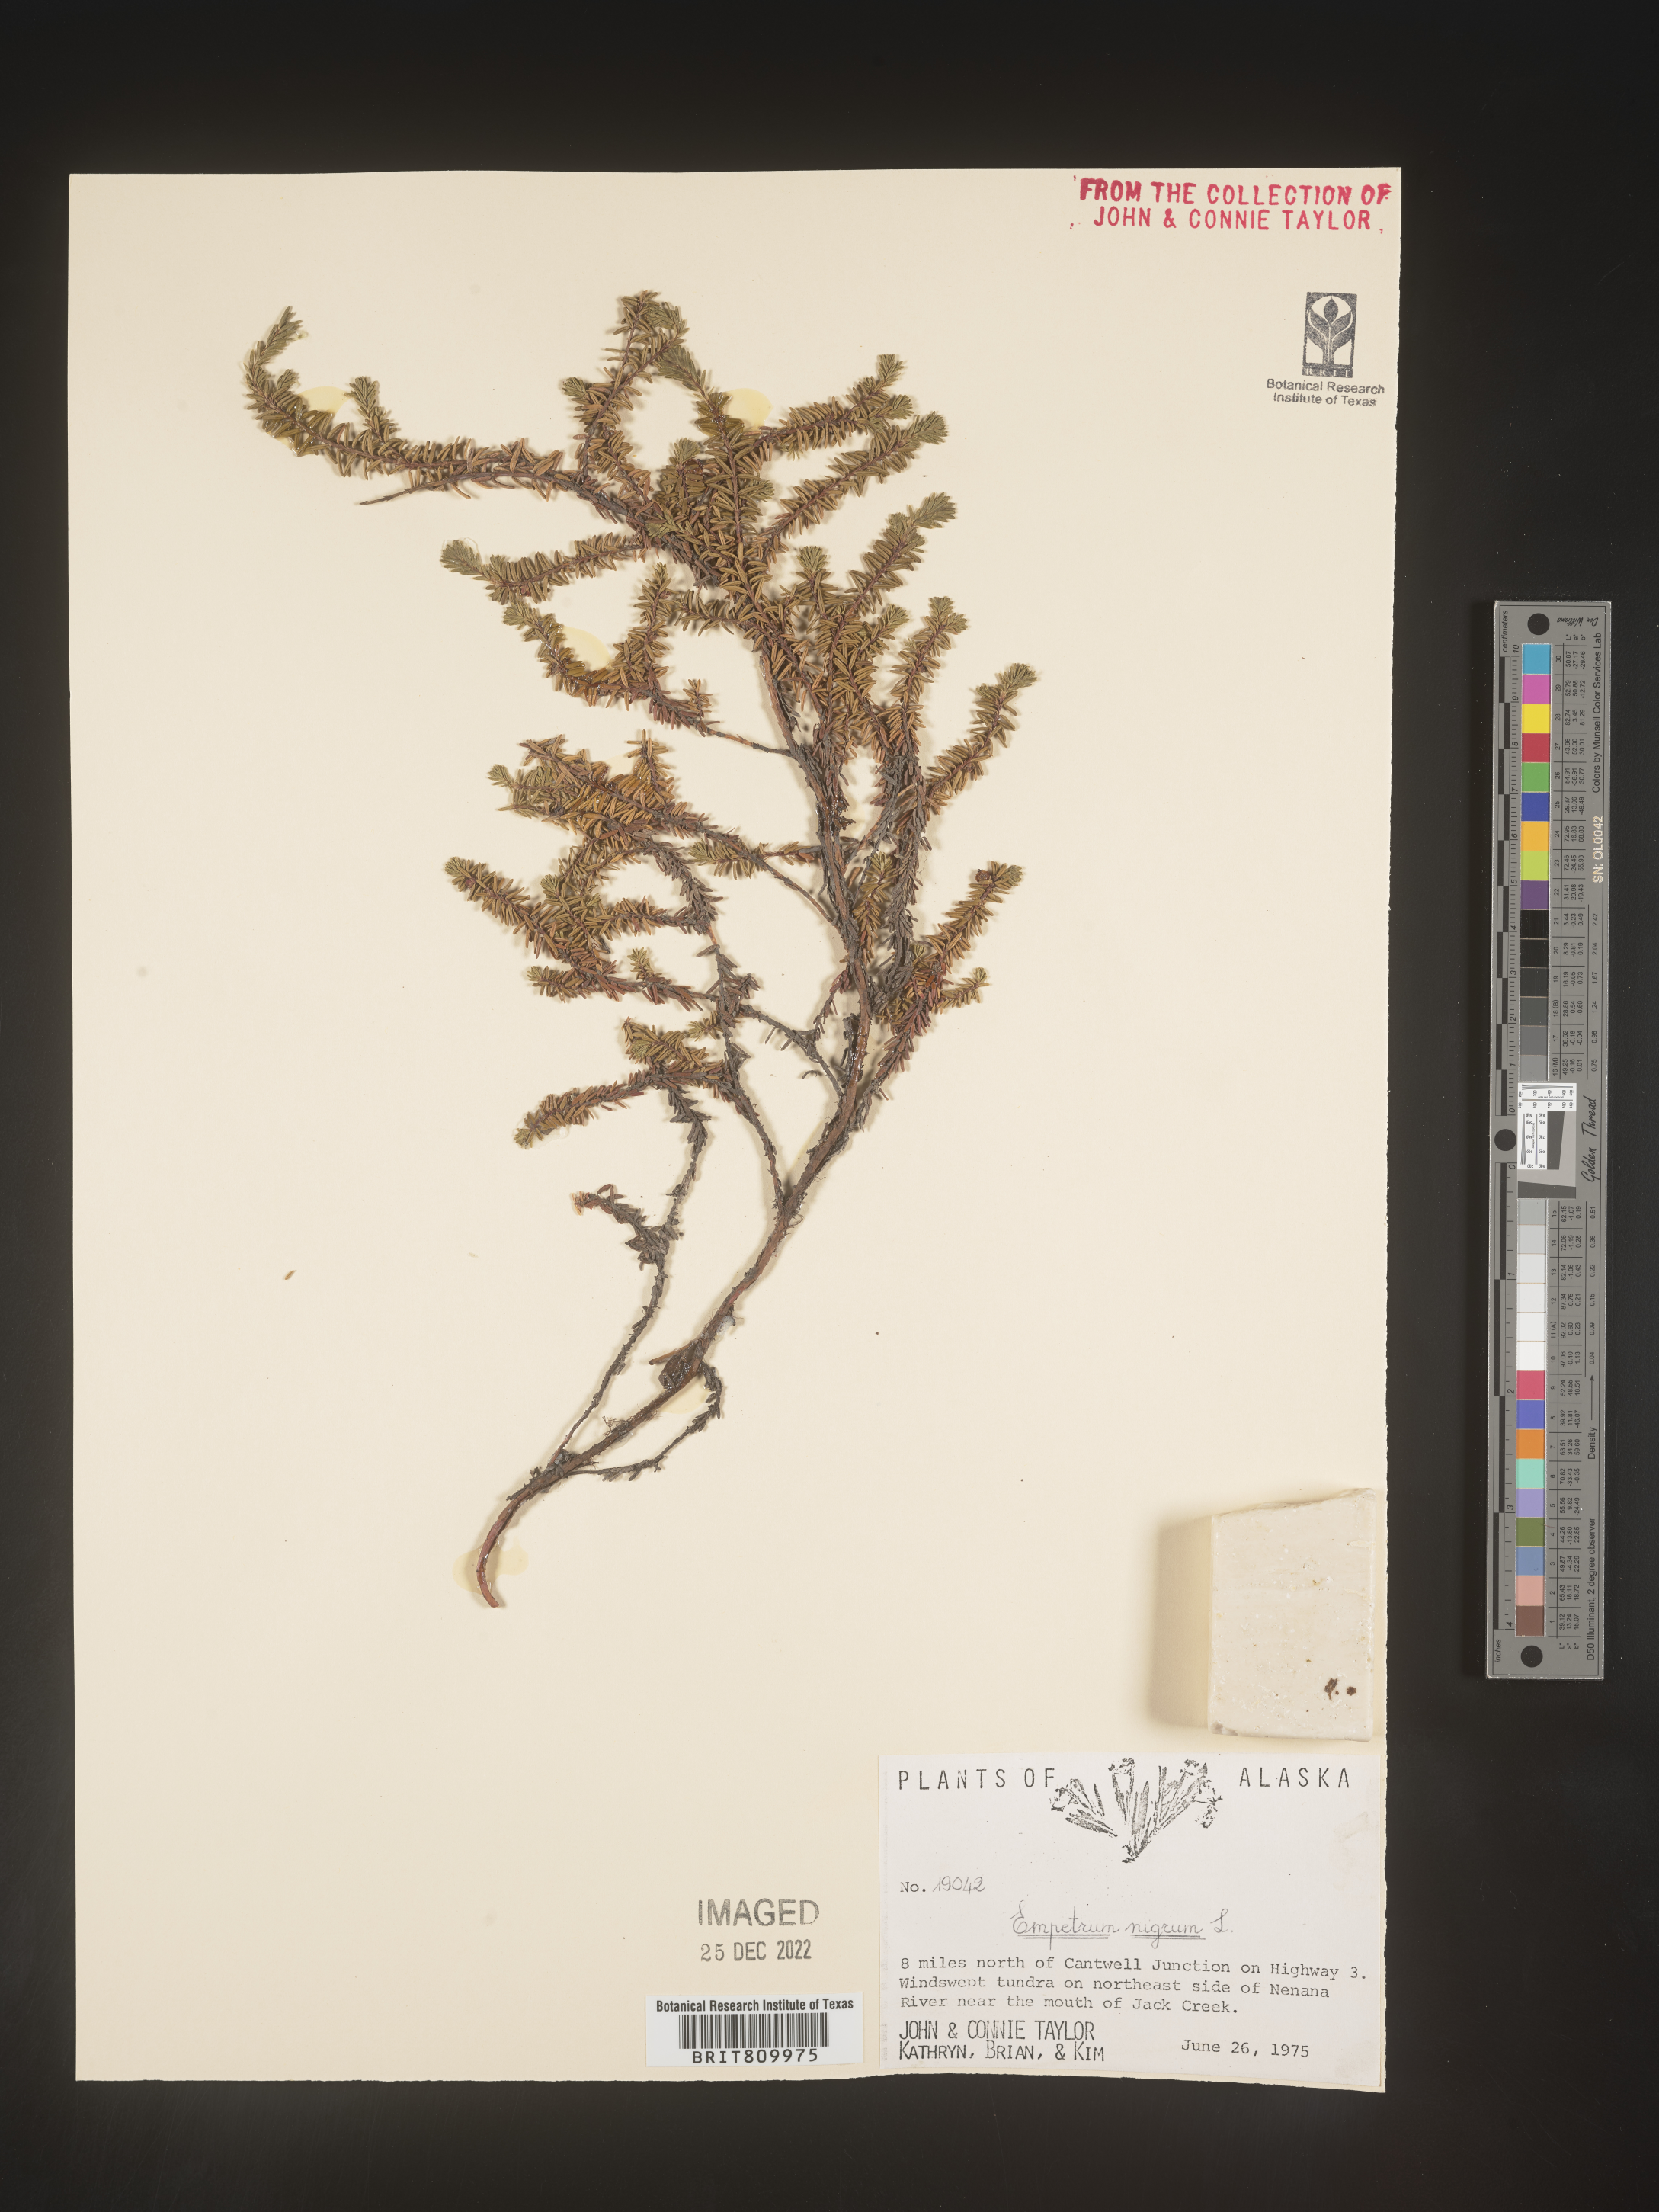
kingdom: Plantae
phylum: Tracheophyta
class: Magnoliopsida
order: Ericales
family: Ericaceae
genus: Empetrum
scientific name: Empetrum
